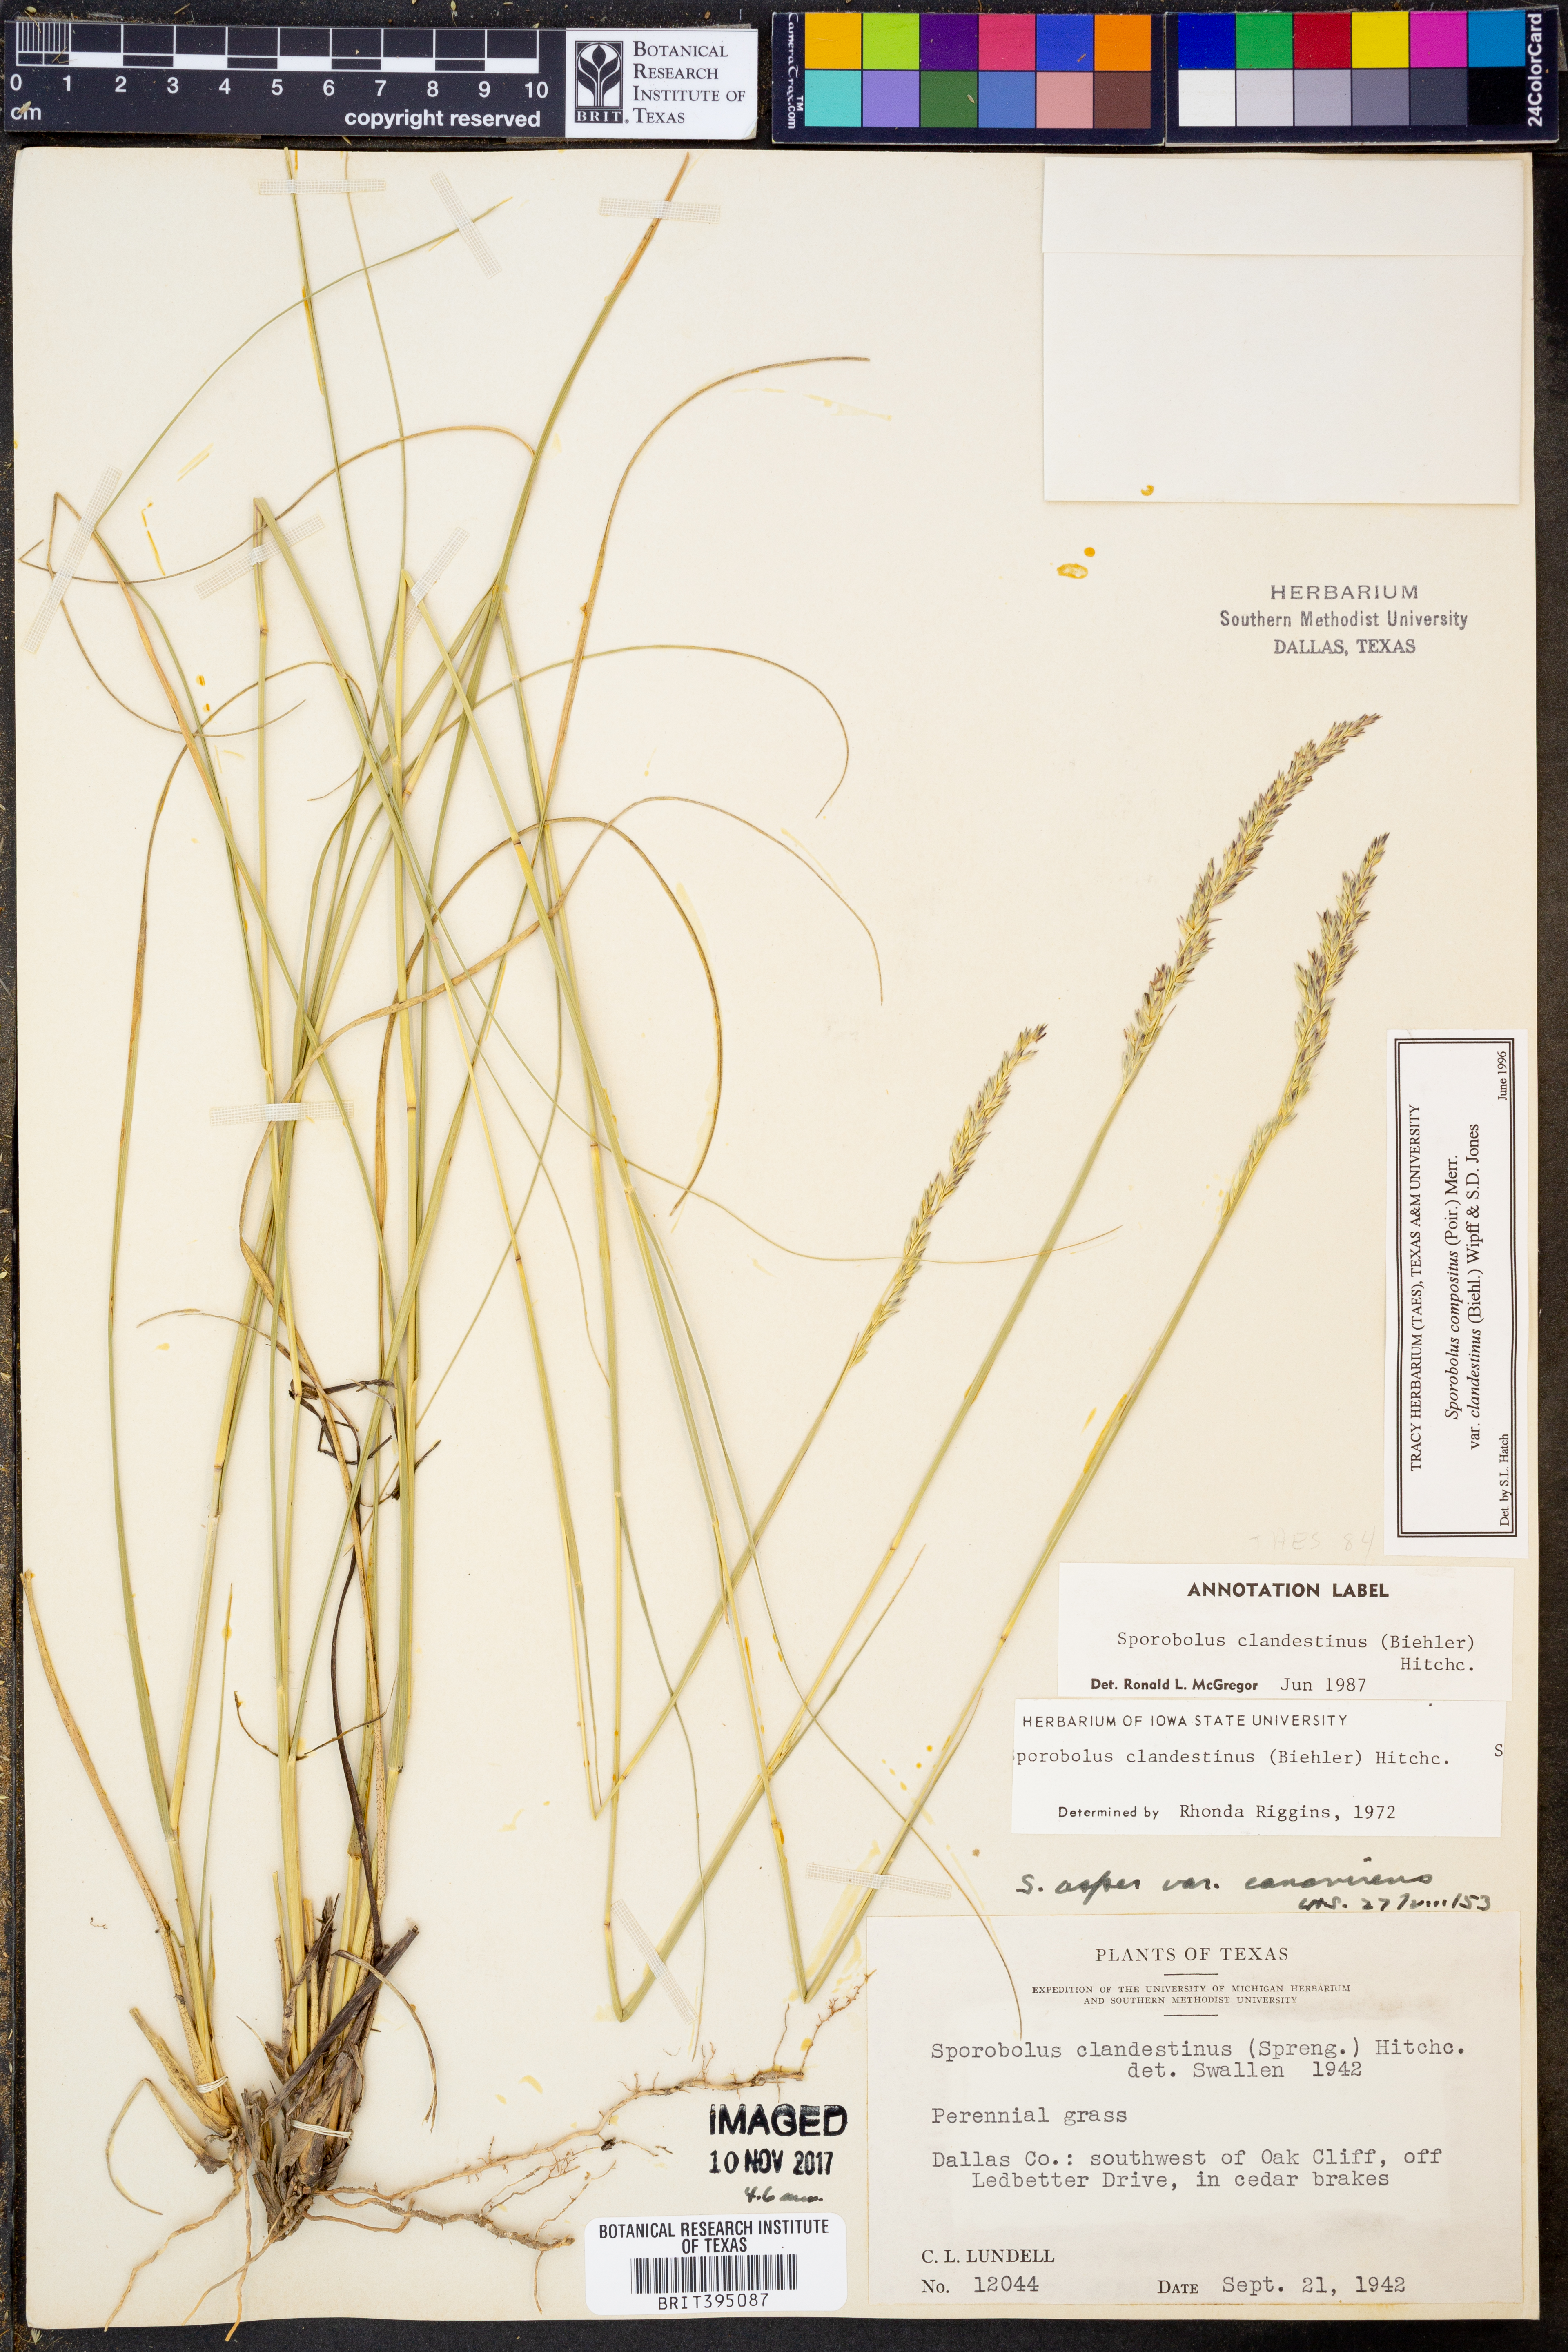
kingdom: Plantae
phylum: Tracheophyta
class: Liliopsida
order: Poales
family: Poaceae
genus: Sporobolus
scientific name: Sporobolus clandestinus
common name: Hidden dropseed
